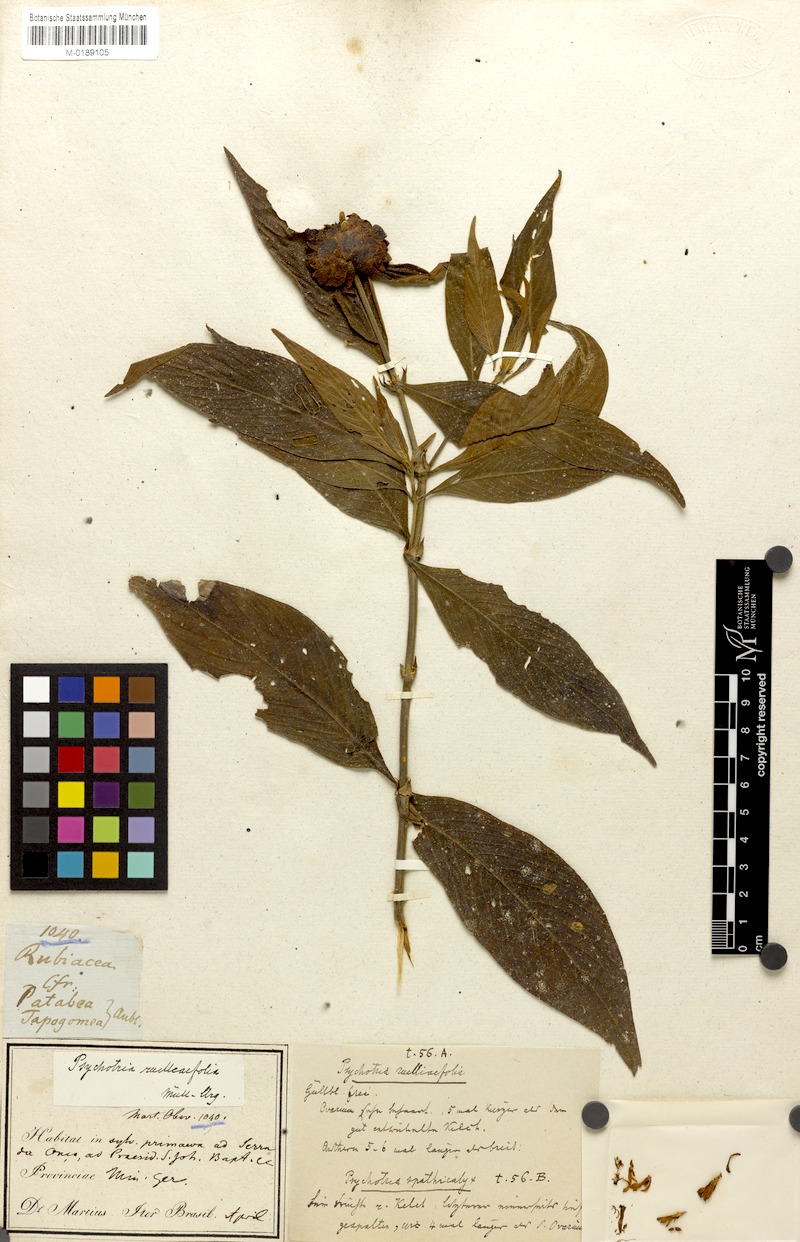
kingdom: Plantae
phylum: Tracheophyta
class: Magnoliopsida
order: Gentianales
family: Rubiaceae
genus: Palicourea
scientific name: Palicourea ruelliifolia
